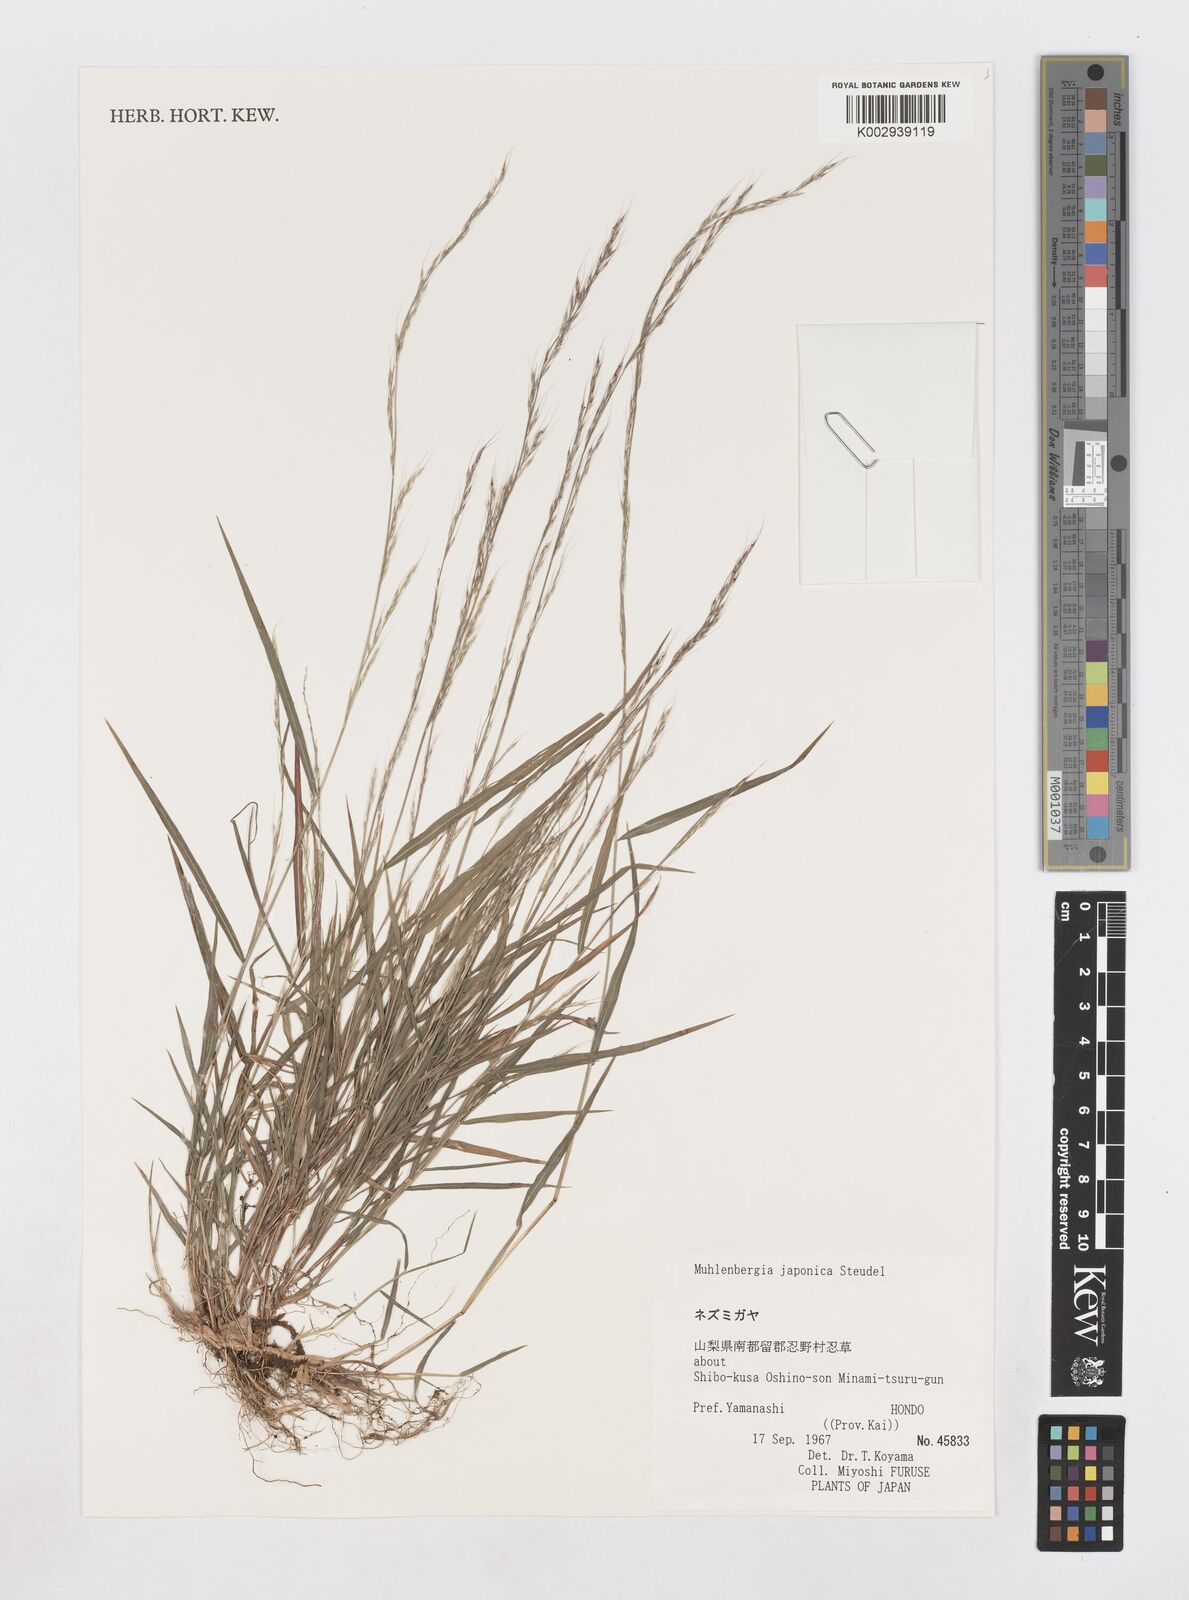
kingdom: Plantae
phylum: Tracheophyta
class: Liliopsida
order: Poales
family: Poaceae
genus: Muhlenbergia
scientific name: Muhlenbergia japonica
